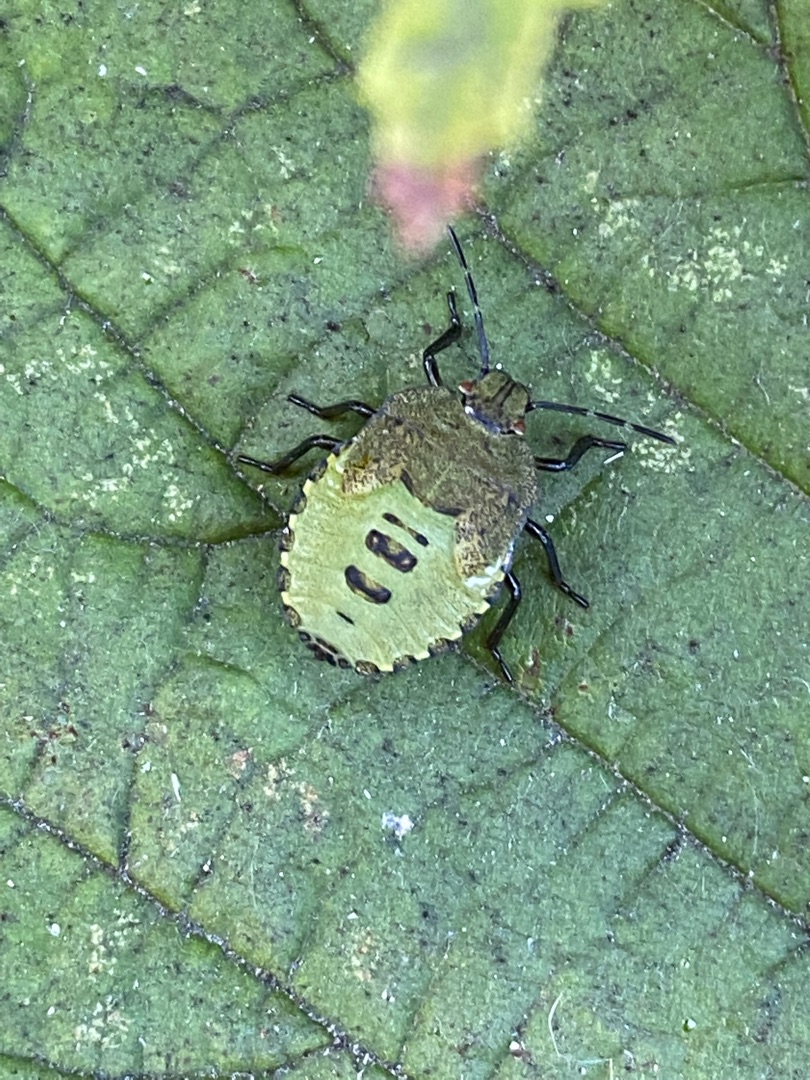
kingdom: Animalia
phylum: Arthropoda
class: Insecta
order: Hemiptera
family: Pentatomidae
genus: Palomena
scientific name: Palomena prasina
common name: Grøn bredtæge
